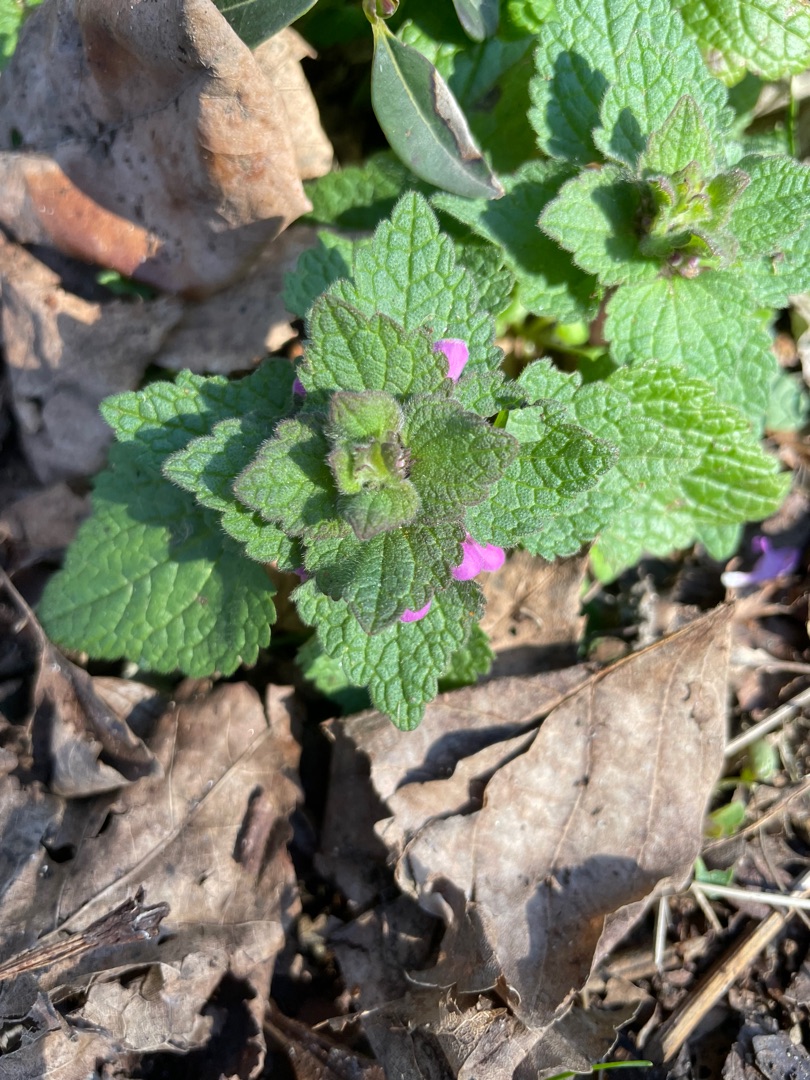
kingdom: Plantae
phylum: Tracheophyta
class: Magnoliopsida
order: Lamiales
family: Lamiaceae
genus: Lamium
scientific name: Lamium purpureum
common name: Rød tvetand
